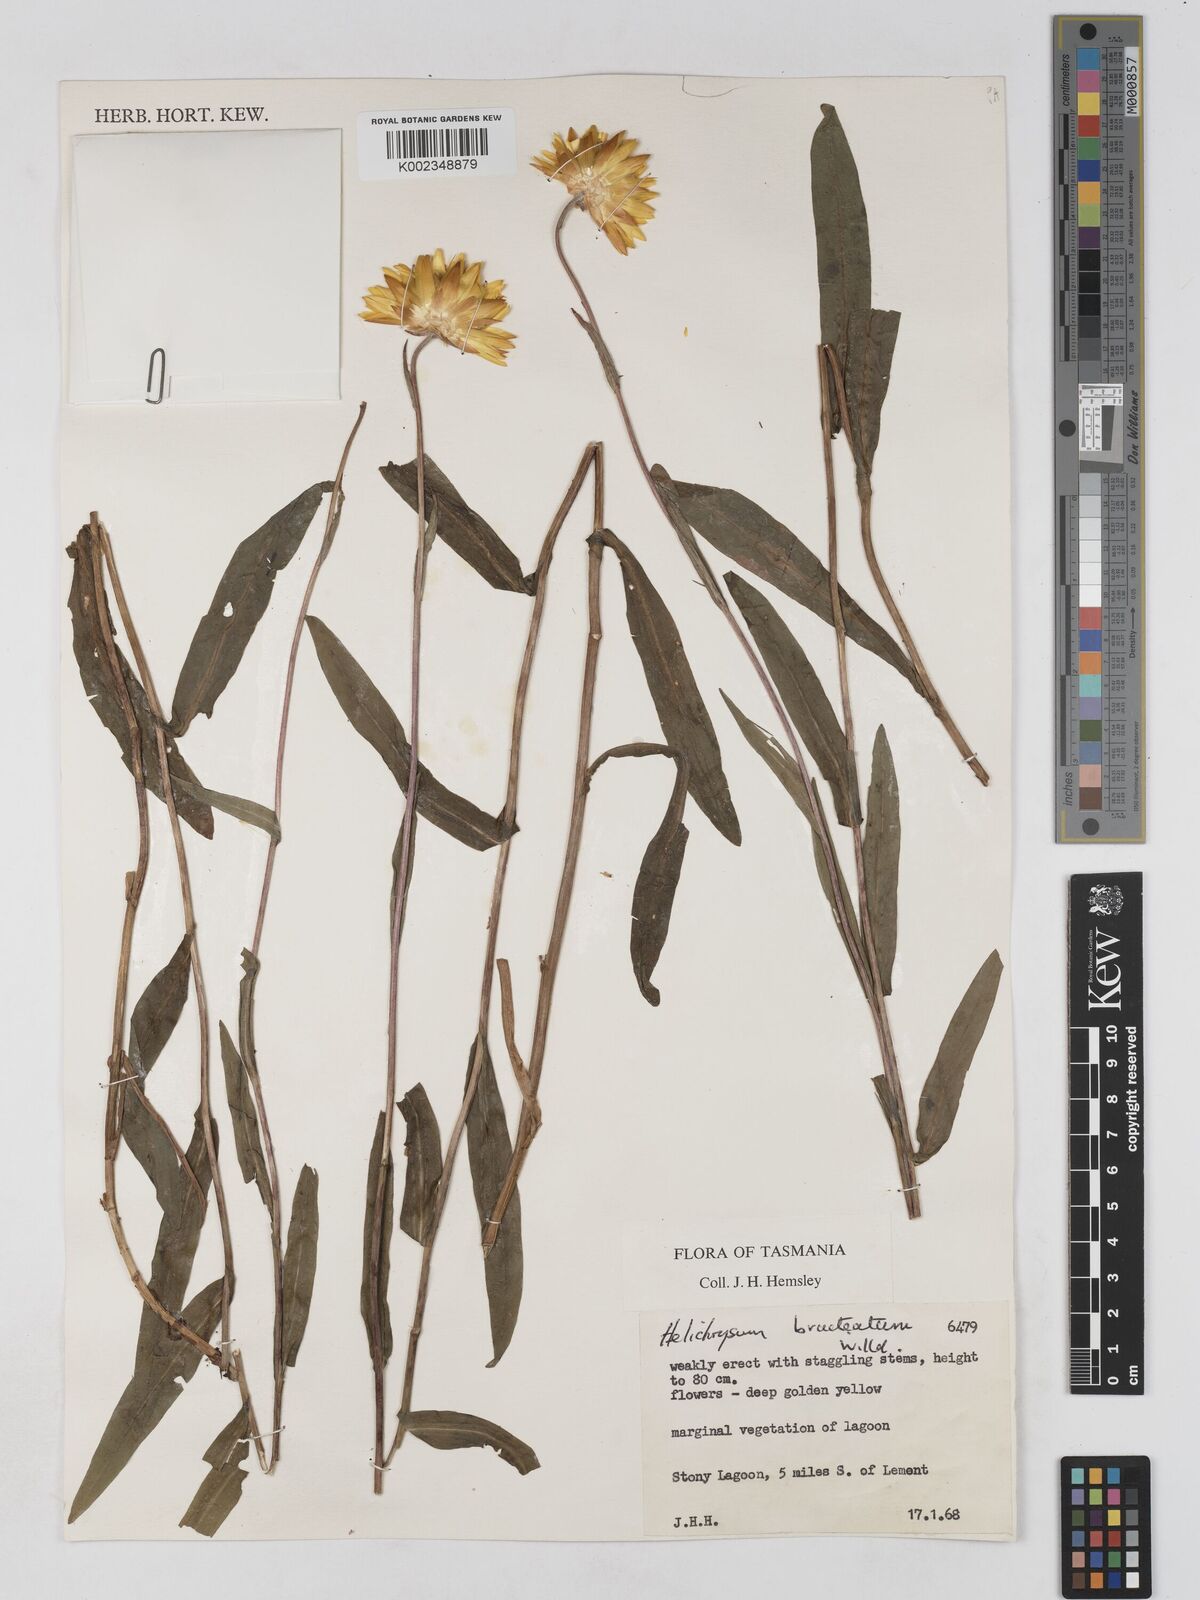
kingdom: Plantae
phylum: Tracheophyta
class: Magnoliopsida
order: Asterales
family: Asteraceae
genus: Xerochrysum
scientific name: Xerochrysum bracteatum
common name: Bracted strawflower
